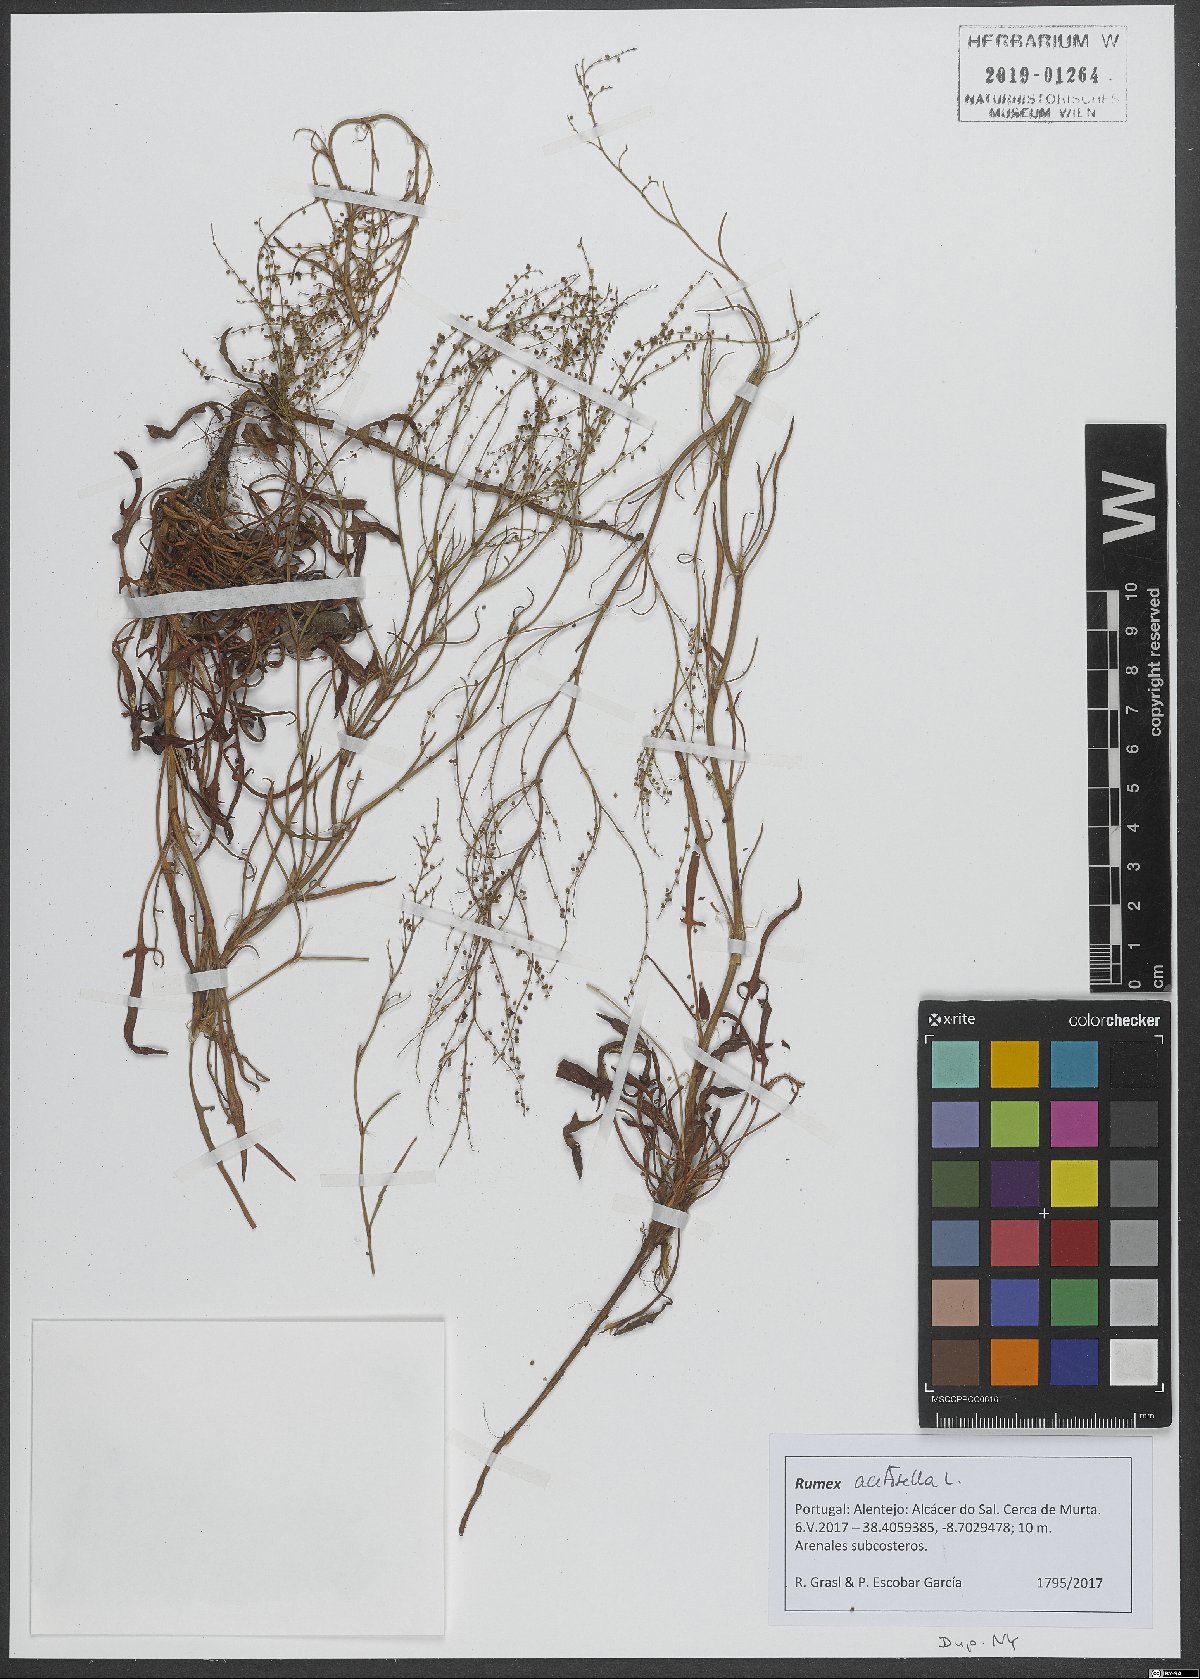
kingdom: Plantae
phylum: Tracheophyta
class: Magnoliopsida
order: Caryophyllales
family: Polygonaceae
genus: Rumex
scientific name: Rumex acetosella
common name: Common sheep sorrel
